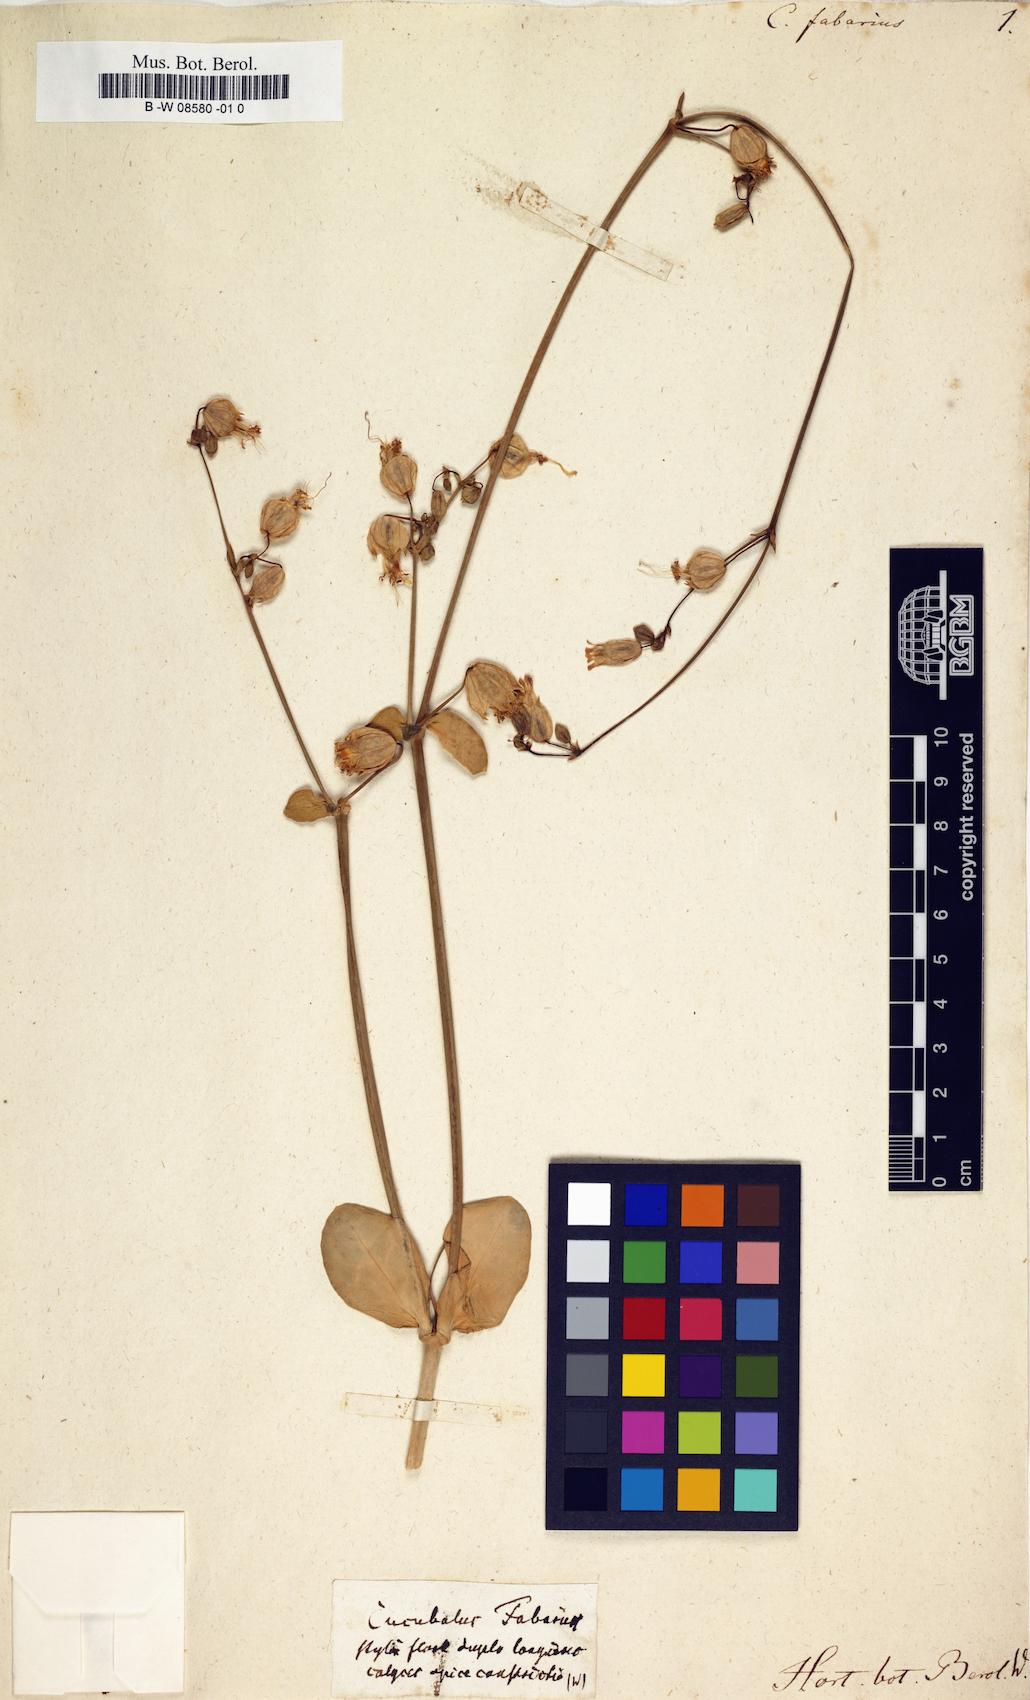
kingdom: Plantae
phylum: Tracheophyta
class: Magnoliopsida
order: Caryophyllales
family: Caryophyllaceae
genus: Silene
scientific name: Silene
